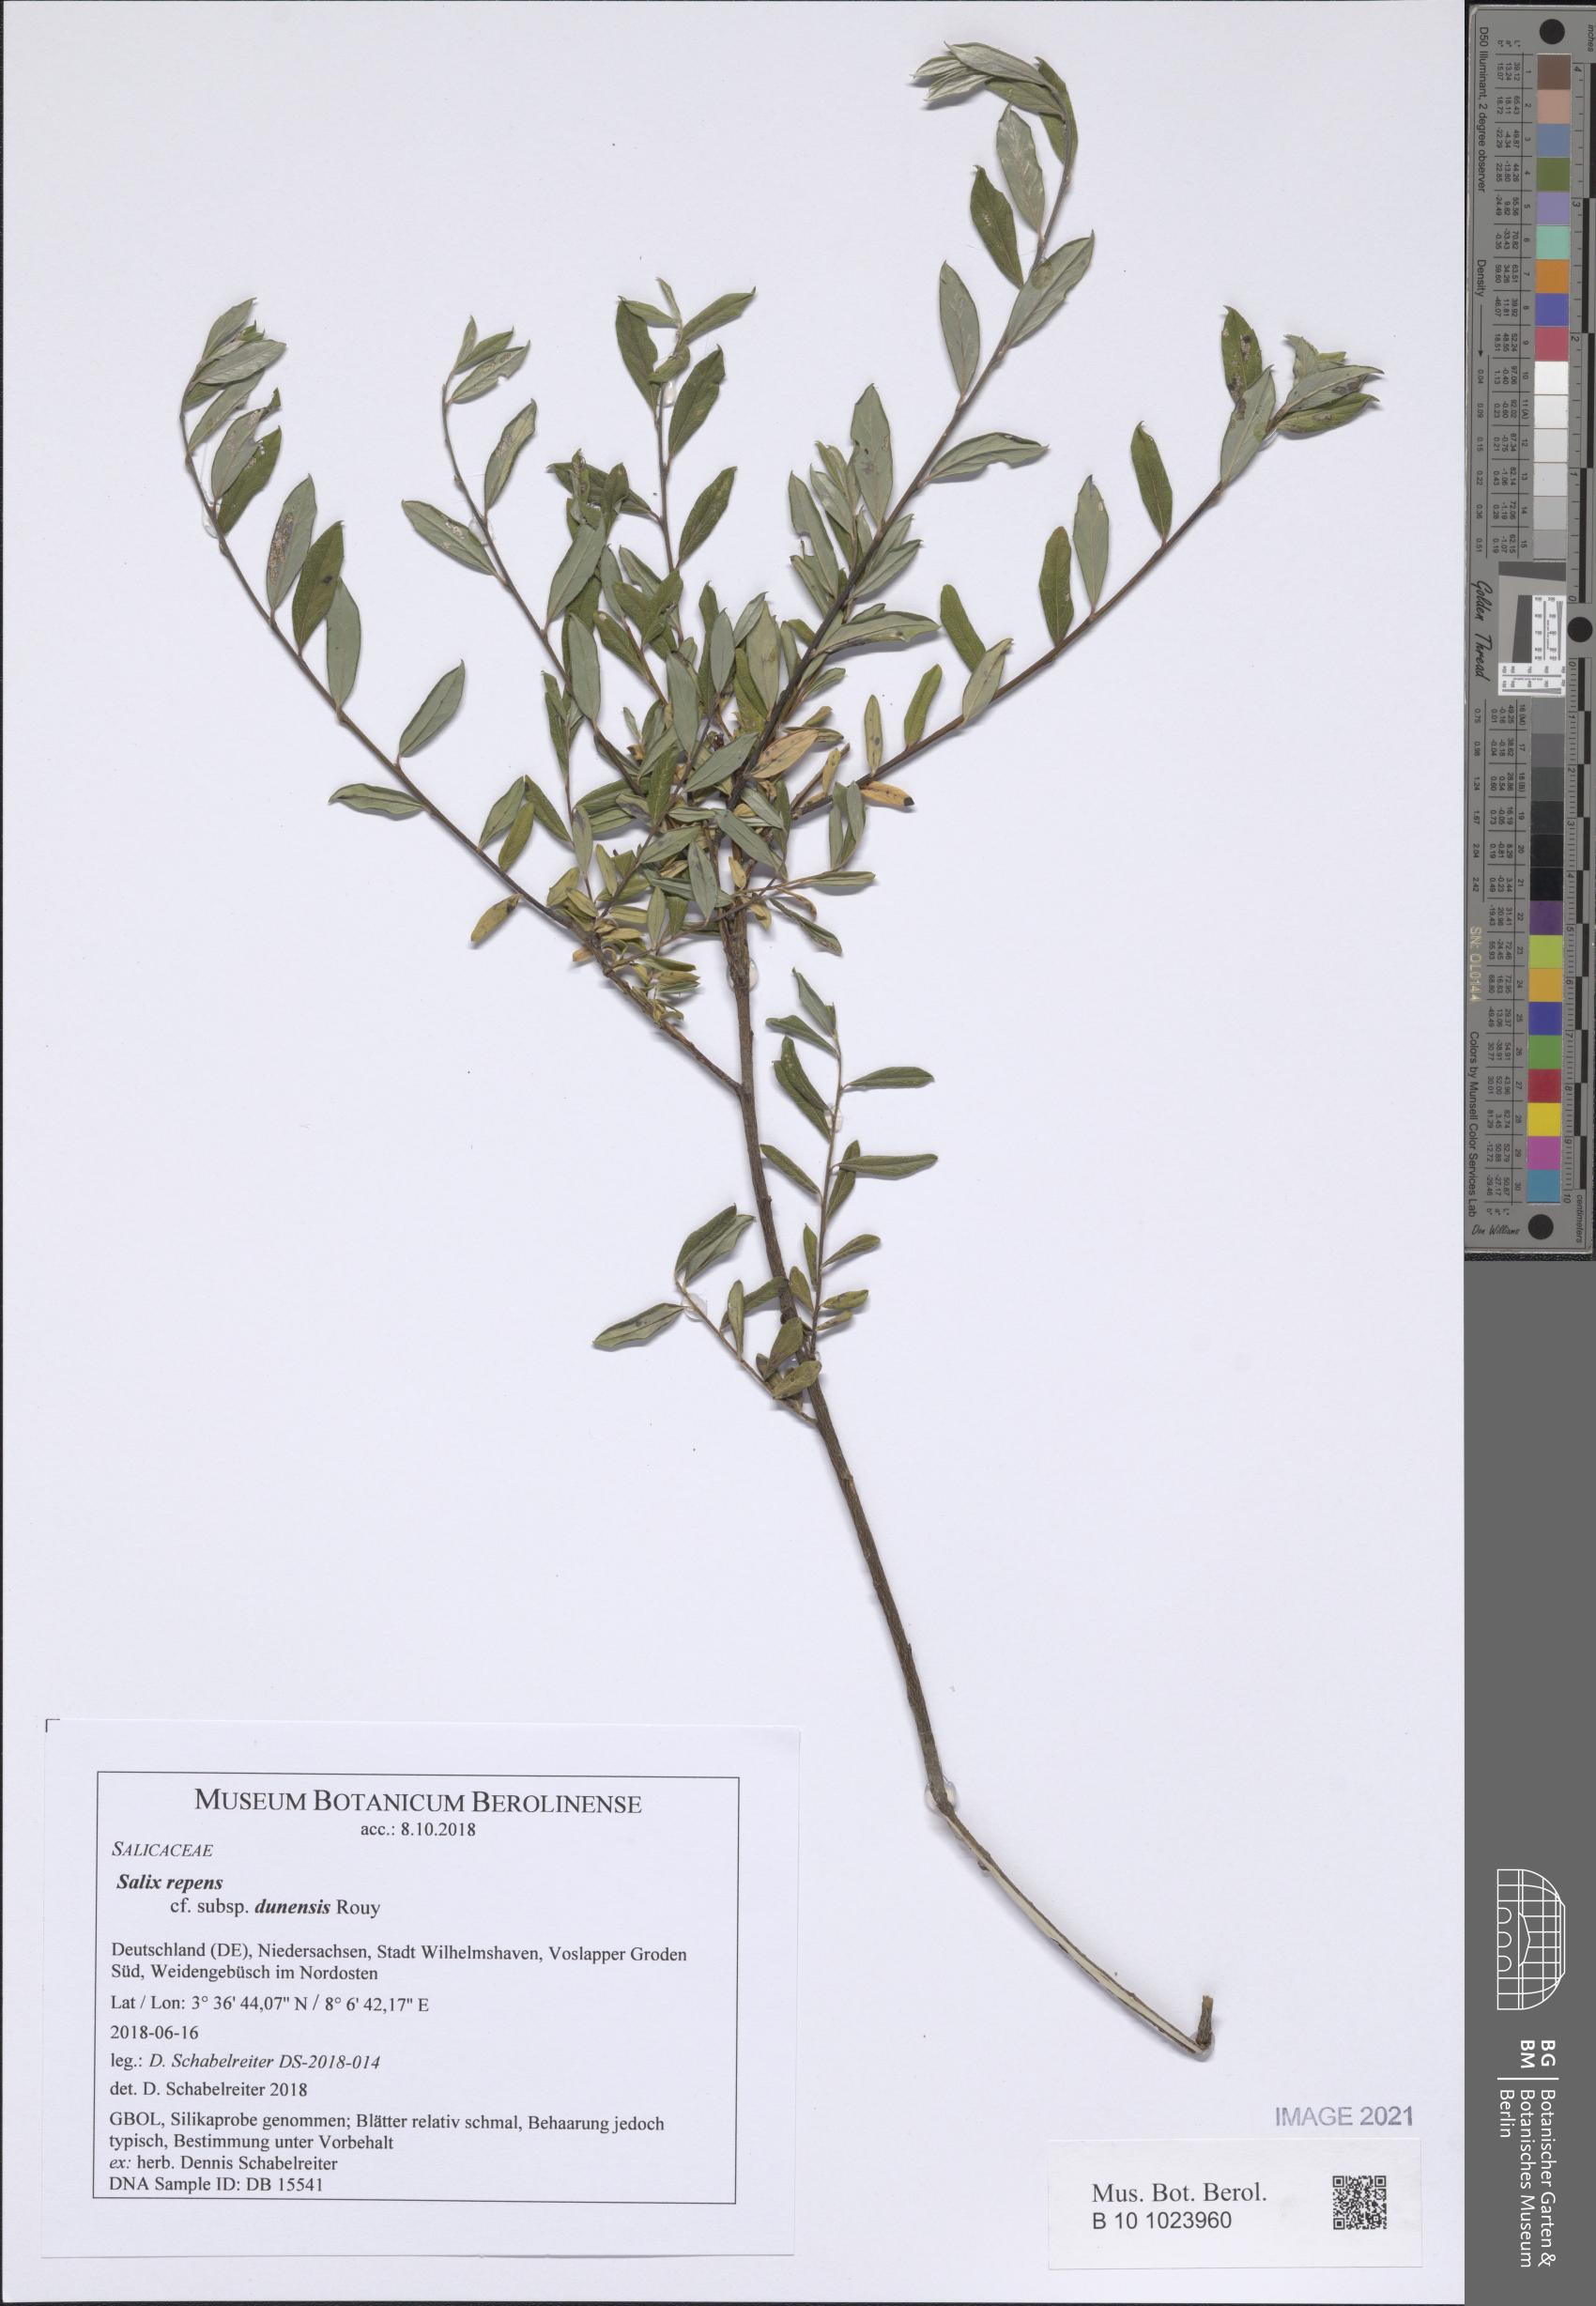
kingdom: Plantae
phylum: Tracheophyta
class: Magnoliopsida
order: Malpighiales
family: Salicaceae
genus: Salix
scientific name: Salix repens
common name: Creeping willow
